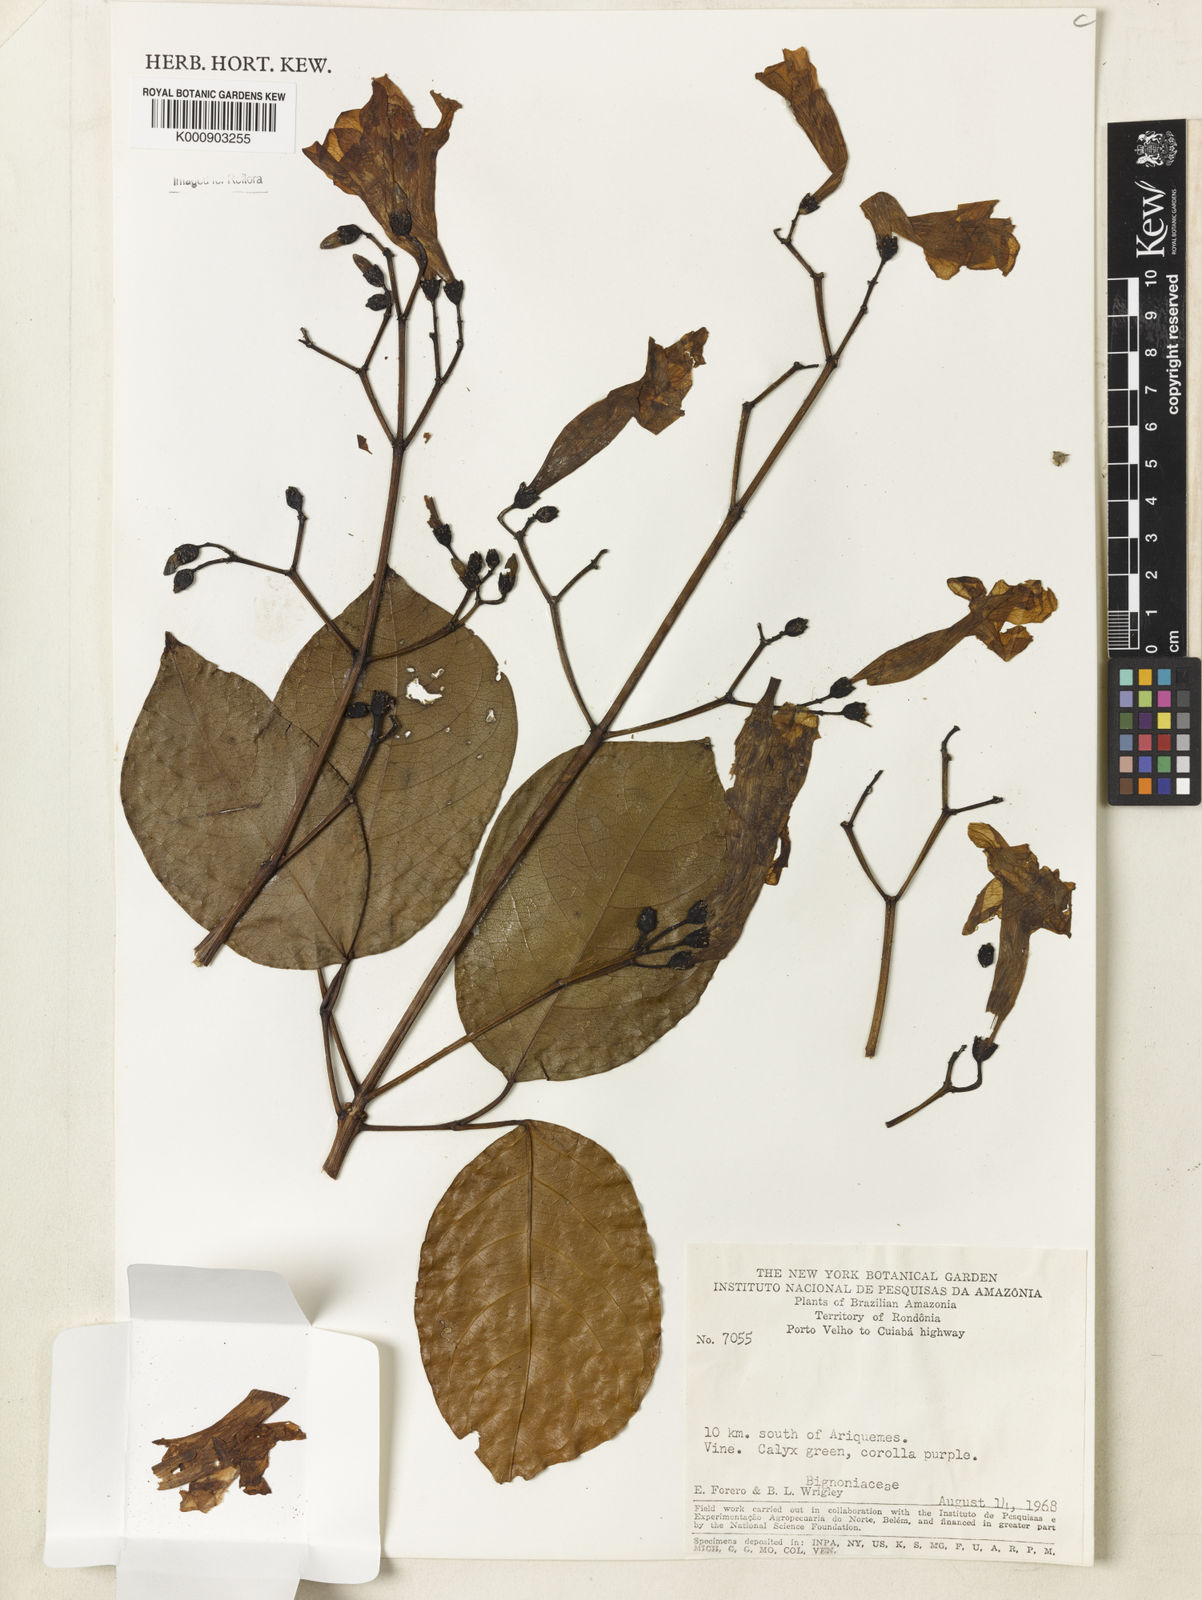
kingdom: Plantae
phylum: Tracheophyta
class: Magnoliopsida
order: Lamiales
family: Bignoniaceae
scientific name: Bignoniaceae
